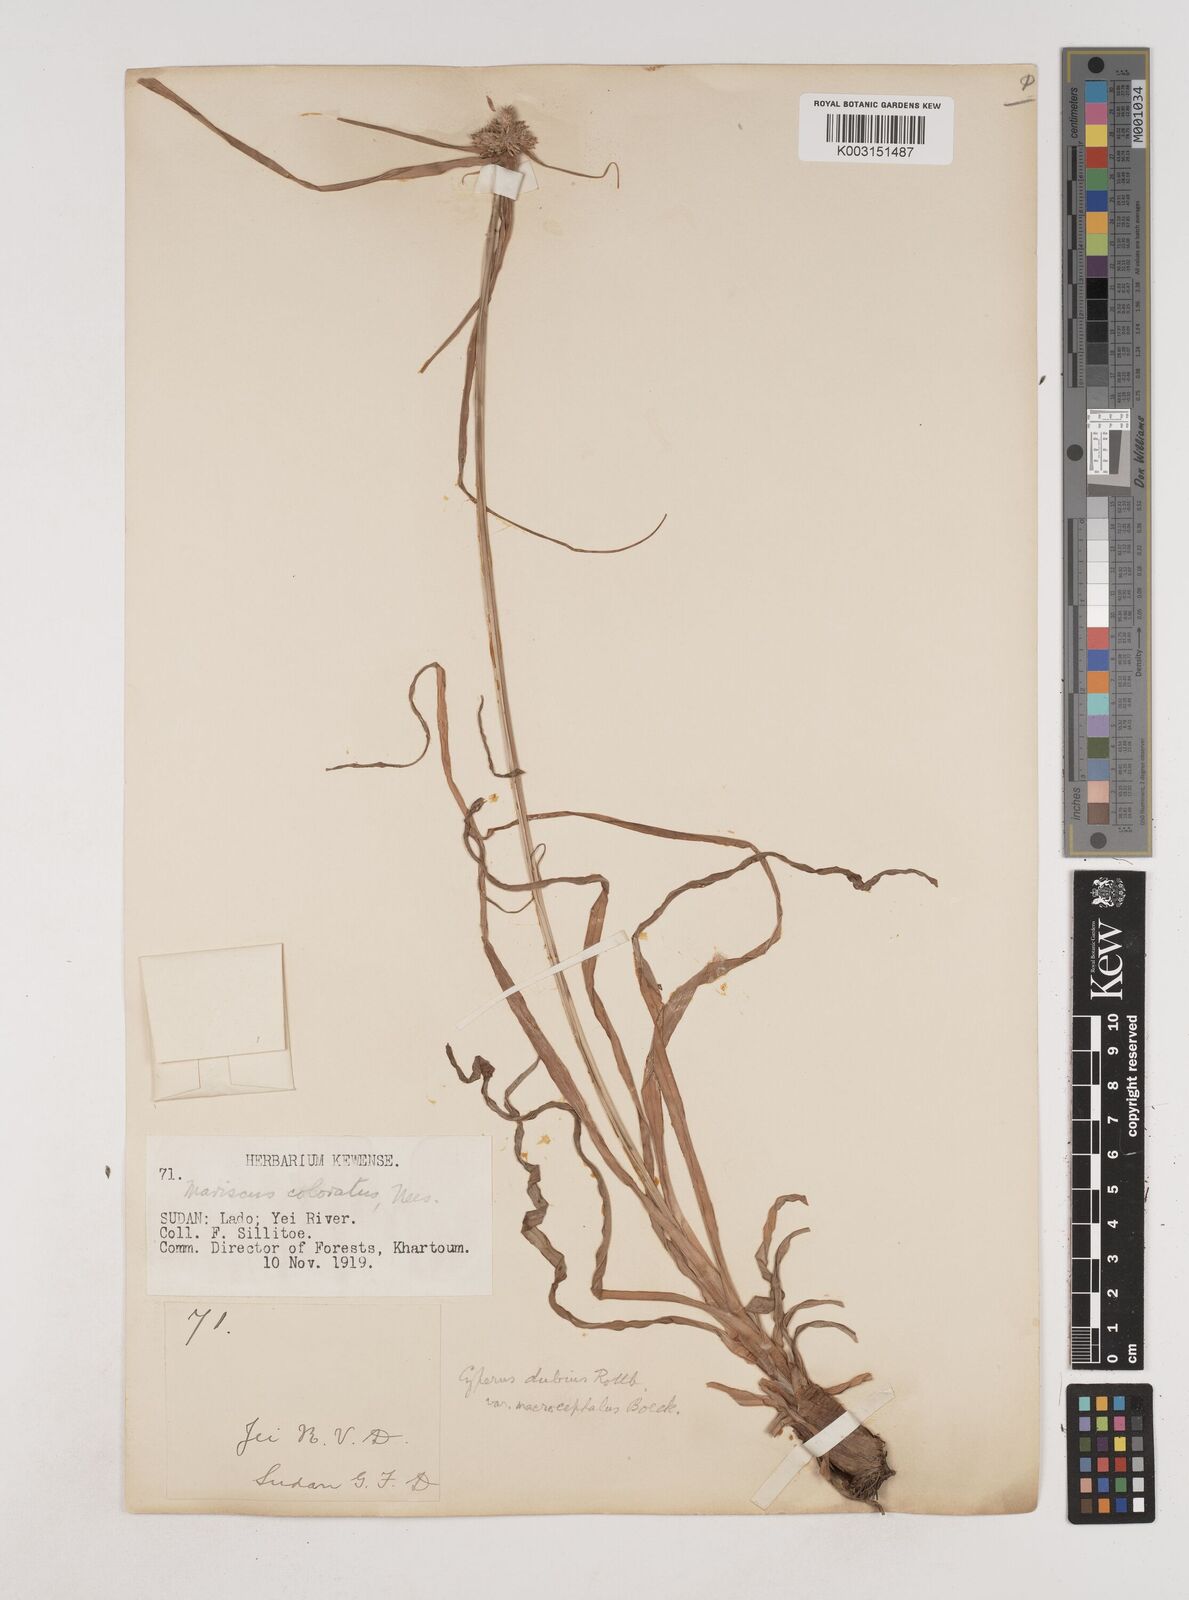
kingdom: Plantae
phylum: Tracheophyta
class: Liliopsida
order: Poales
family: Cyperaceae
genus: Cyperus
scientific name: Cyperus dubius
